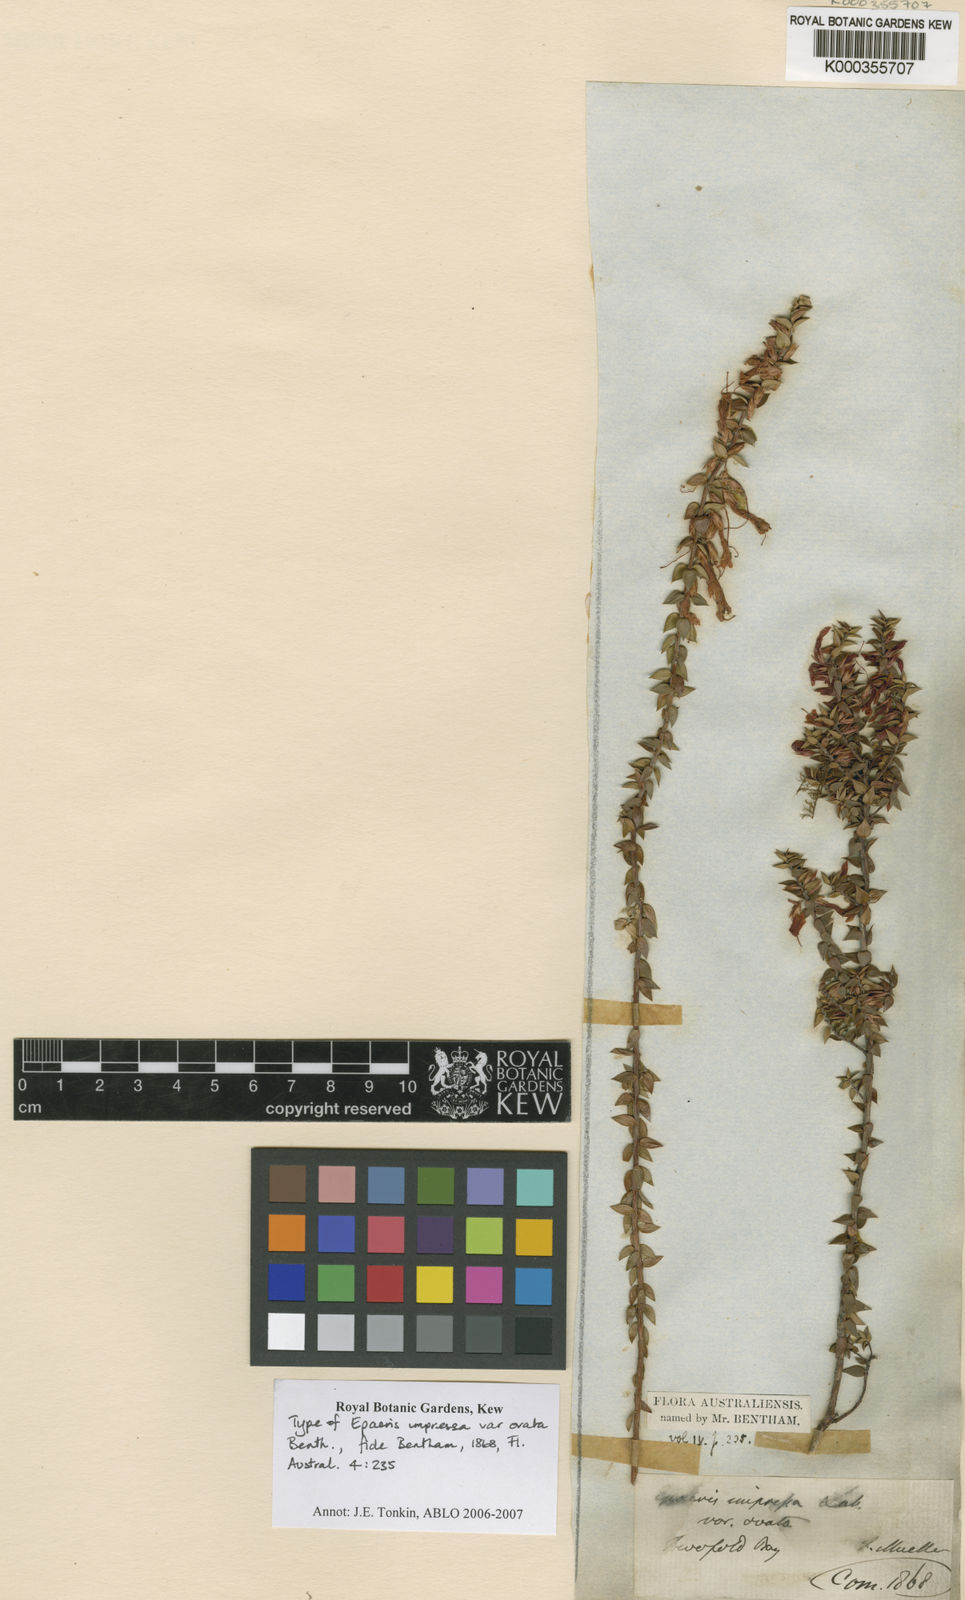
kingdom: Plantae
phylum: Tracheophyta
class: Magnoliopsida
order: Ericales
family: Ericaceae
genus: Epacris
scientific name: Epacris impressa
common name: Common-heath
